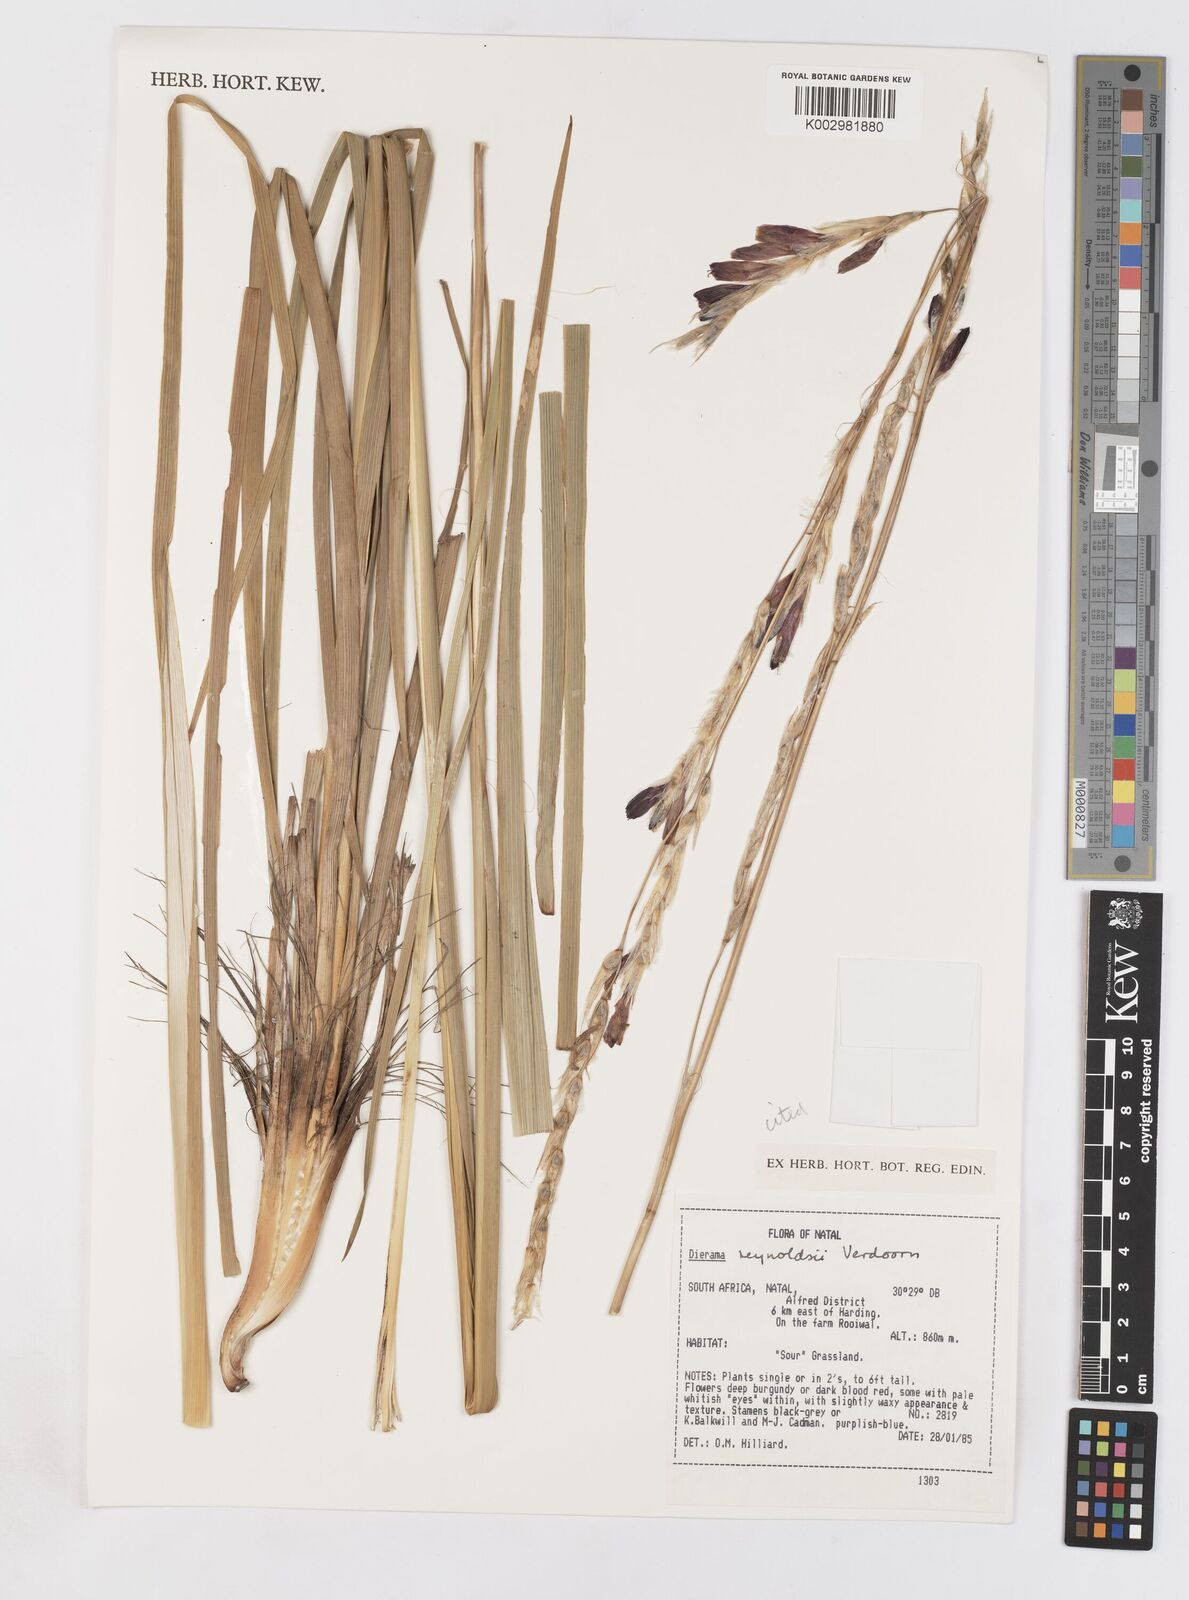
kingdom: Plantae
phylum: Tracheophyta
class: Liliopsida
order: Asparagales
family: Iridaceae
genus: Dierama
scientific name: Dierama reynoldsii
